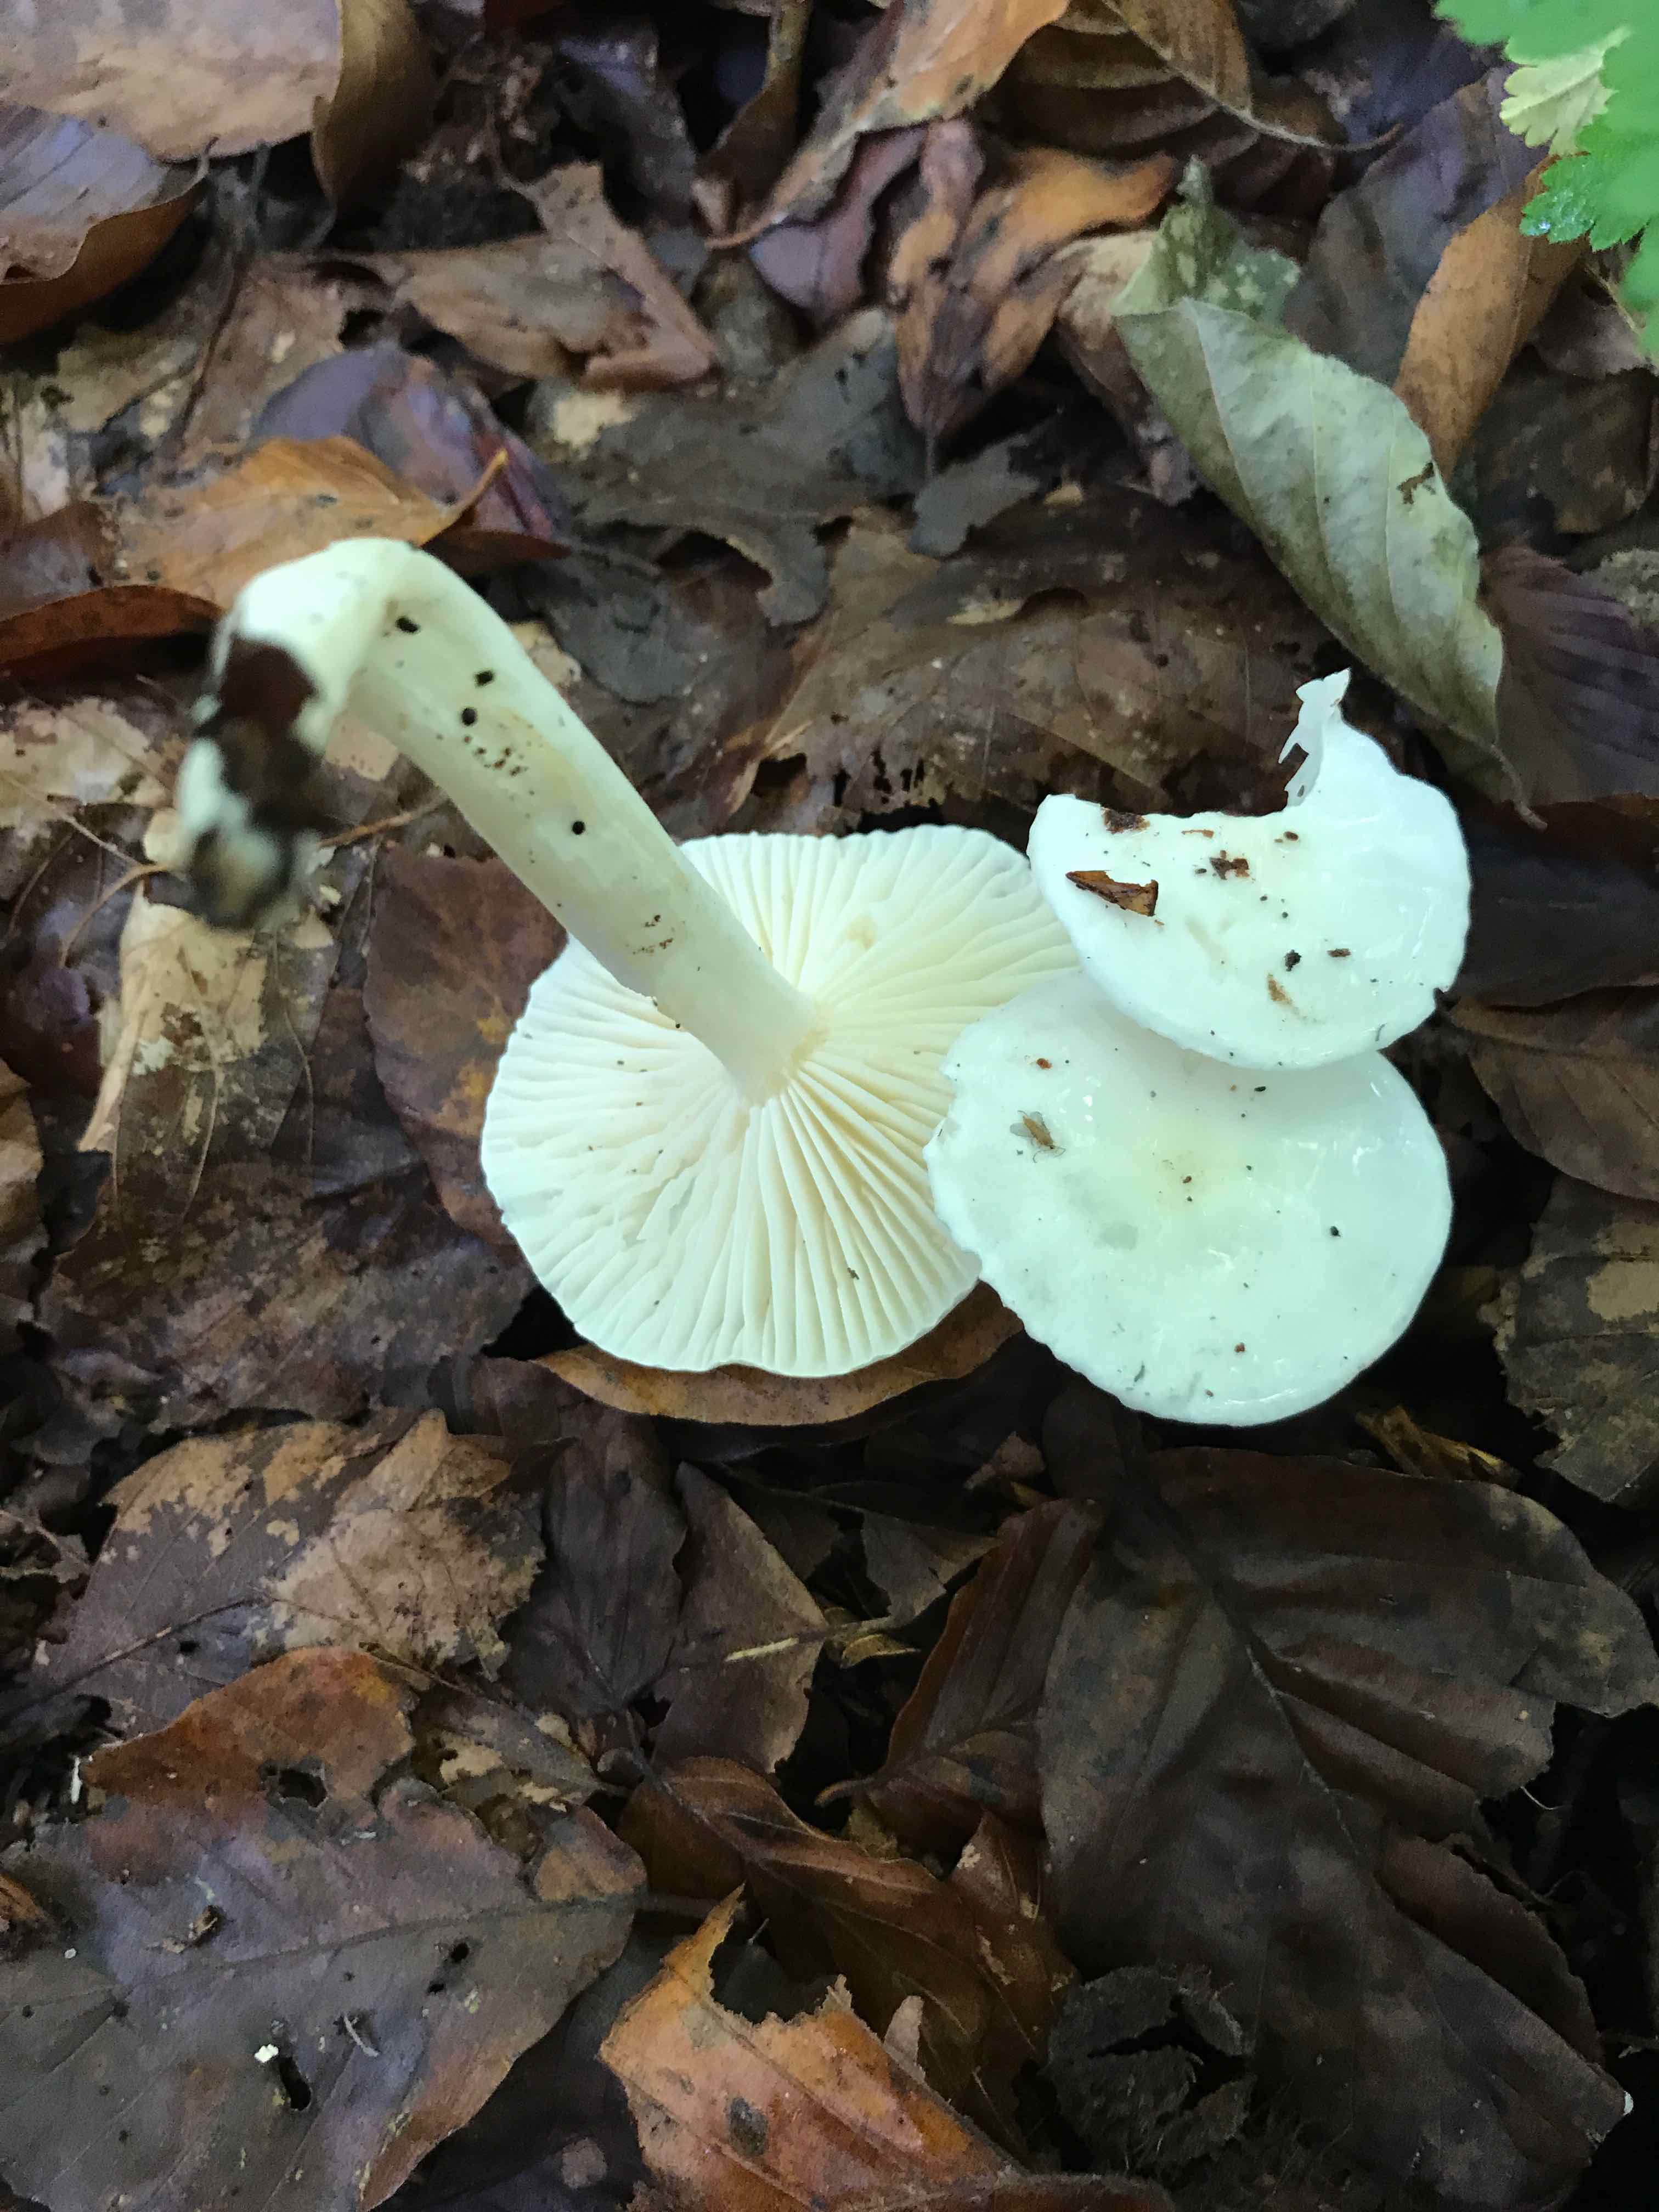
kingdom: Fungi
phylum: Basidiomycota
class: Agaricomycetes
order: Agaricales
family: Hygrophoraceae
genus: Hygrophorus
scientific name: Hygrophorus eburneus
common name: elfenbens-sneglehat
